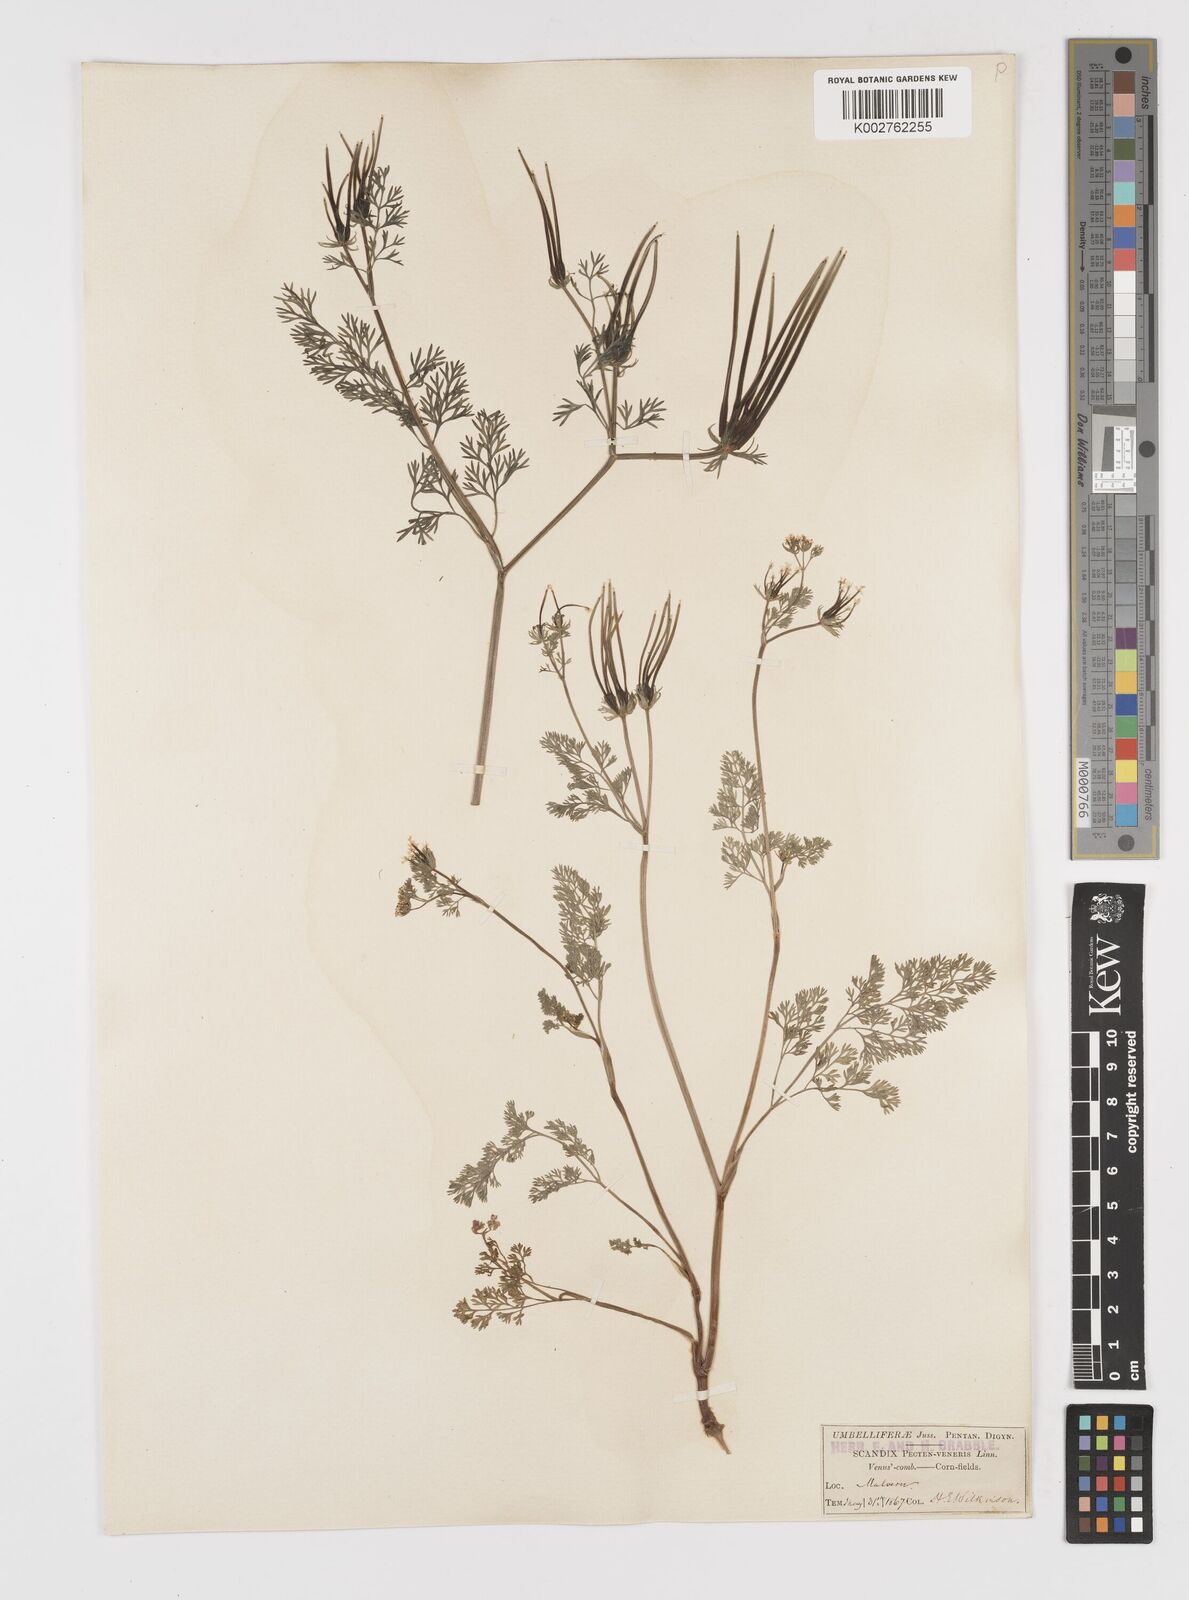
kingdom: Plantae
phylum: Tracheophyta
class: Magnoliopsida
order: Apiales
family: Apiaceae
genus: Scandix
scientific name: Scandix pecten-veneris
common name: Shepherd's-needle
